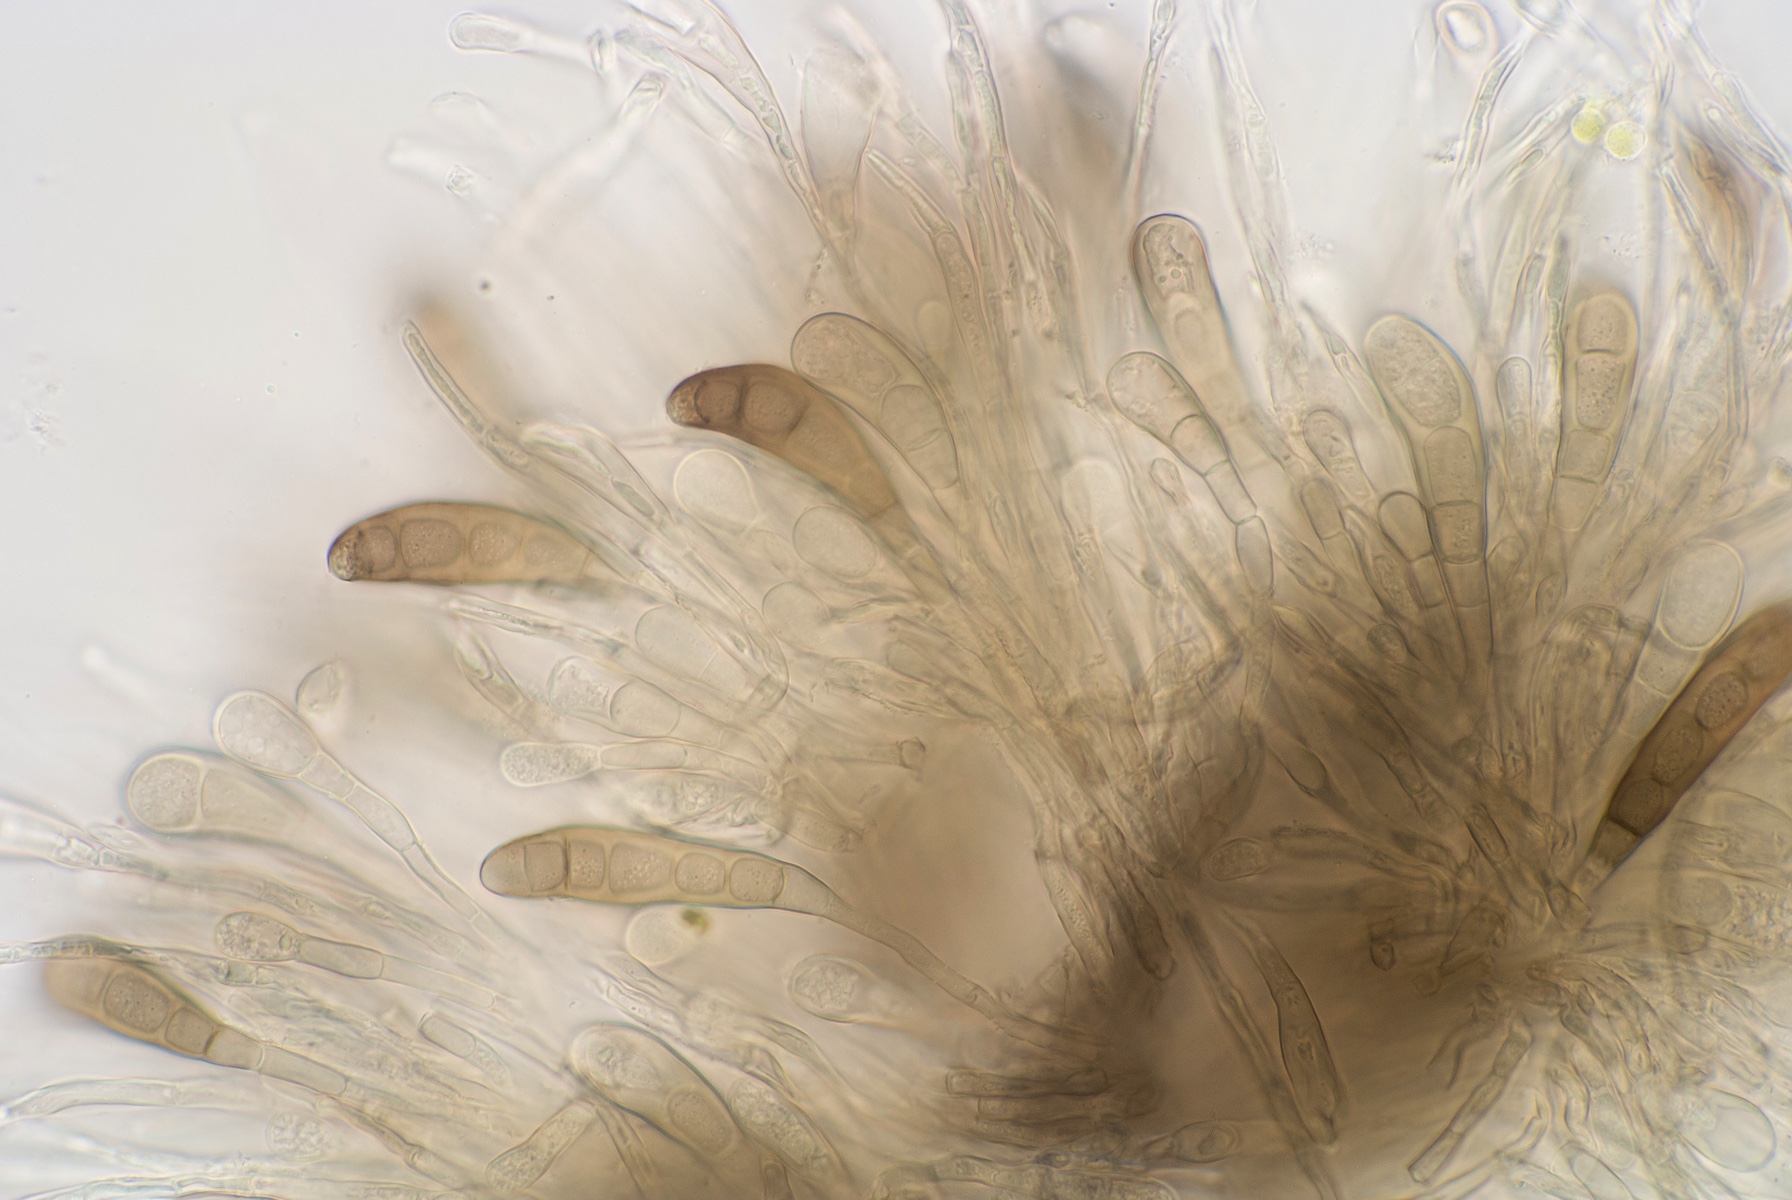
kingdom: Fungi
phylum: Ascomycota
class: Sordariomycetes
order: Diaporthales
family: Coryneaceae
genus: Pseudovalsa
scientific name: Pseudovalsa longipes
